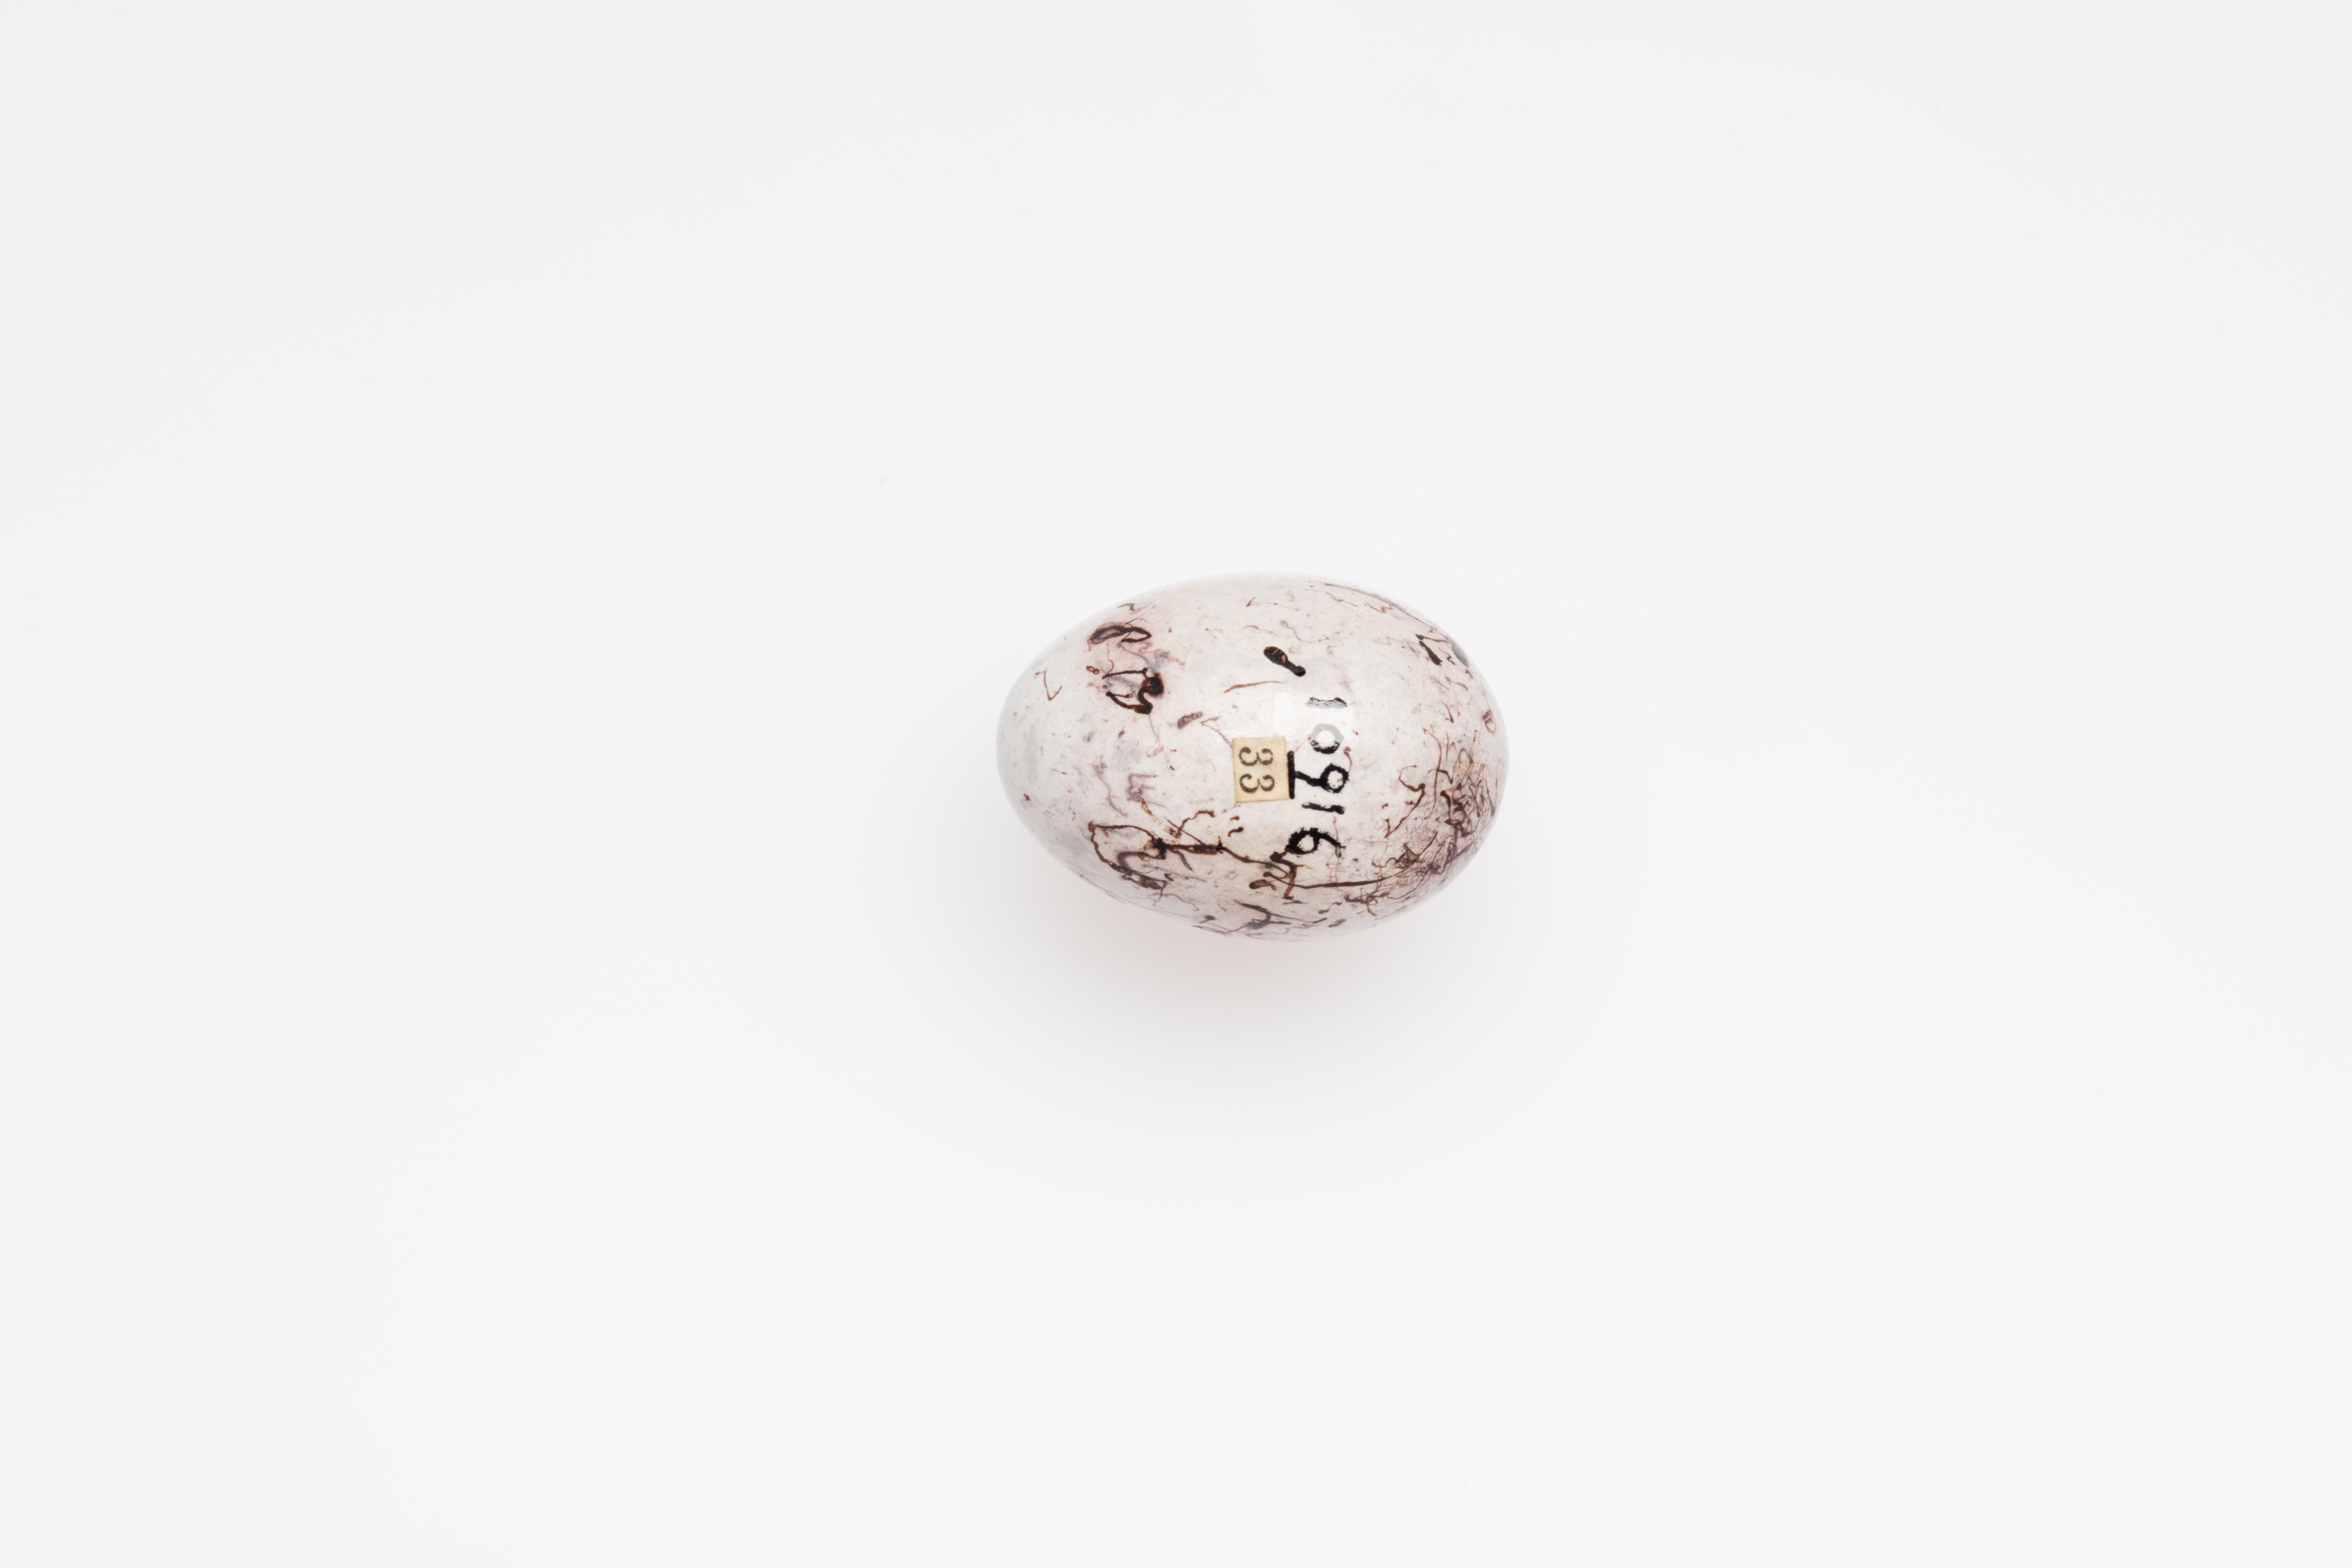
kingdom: Animalia
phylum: Chordata
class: Aves
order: Passeriformes
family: Emberizidae
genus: Emberiza
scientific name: Emberiza citrinella
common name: Yellowhammer
